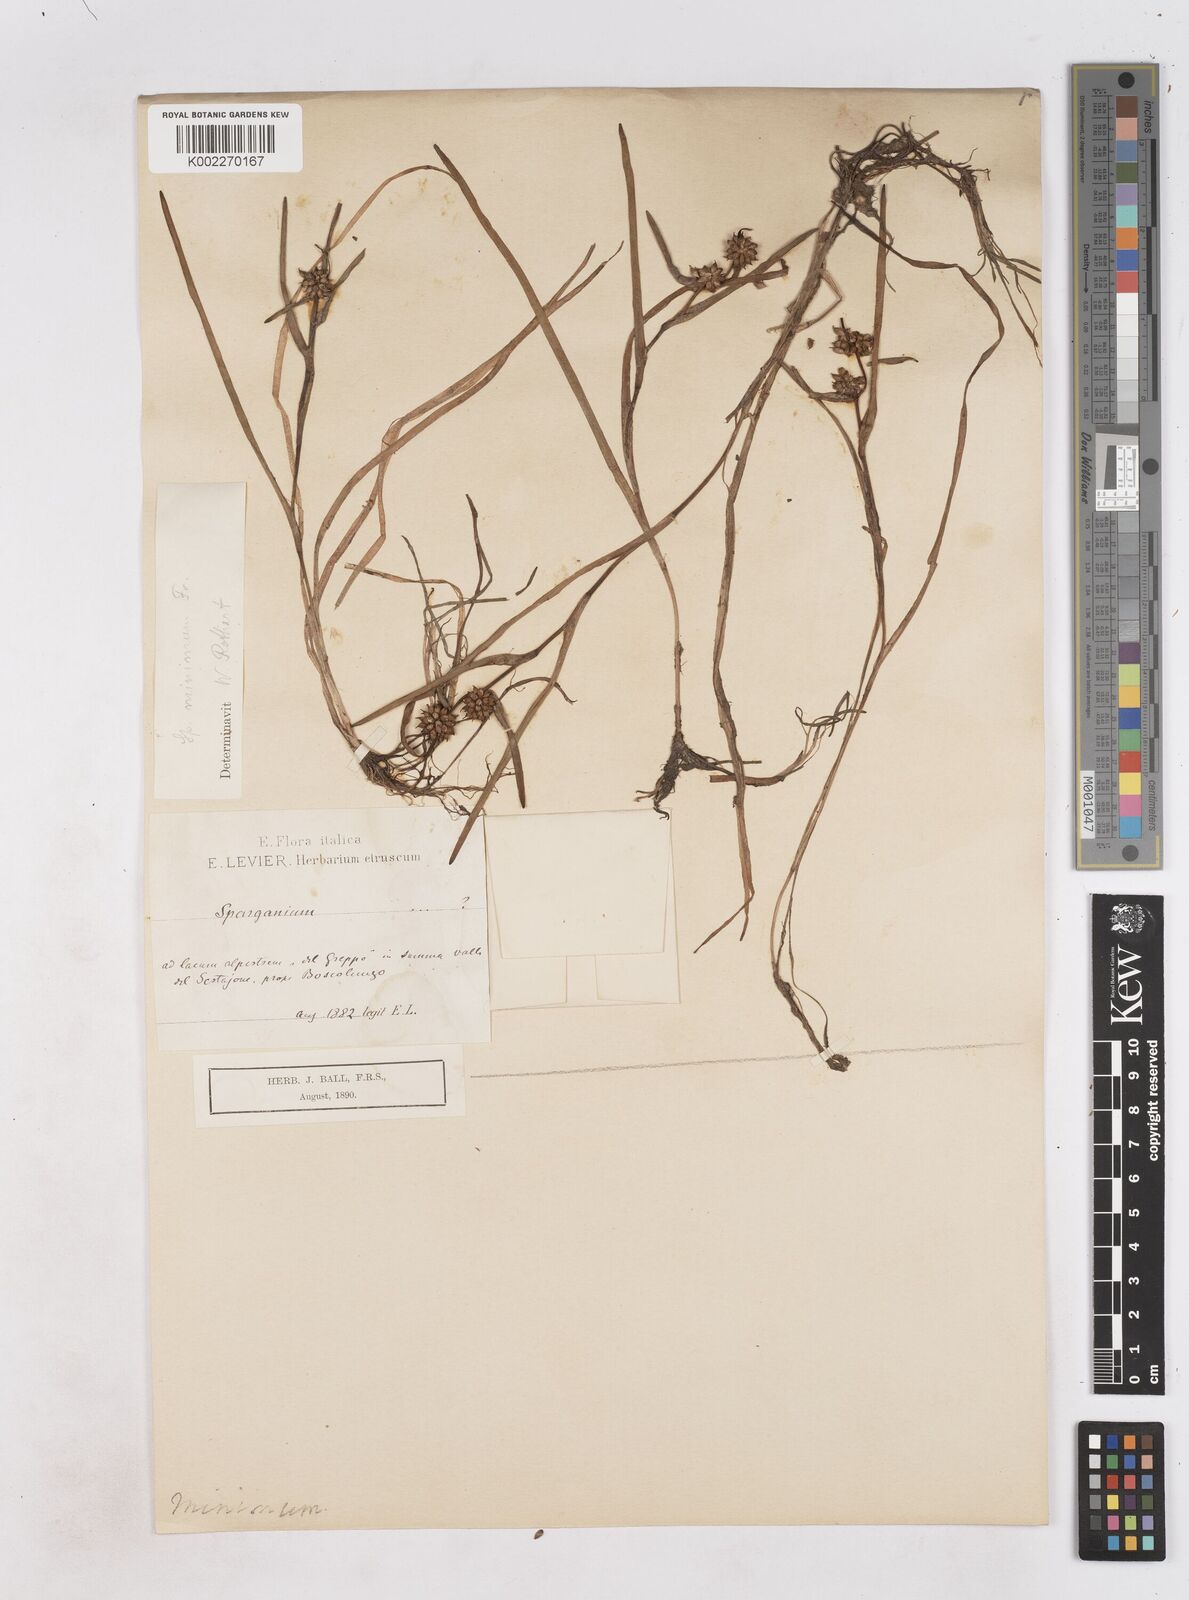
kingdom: Plantae
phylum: Tracheophyta
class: Liliopsida
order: Poales
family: Typhaceae
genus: Sparganium
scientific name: Sparganium natans
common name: Least bur-reed
